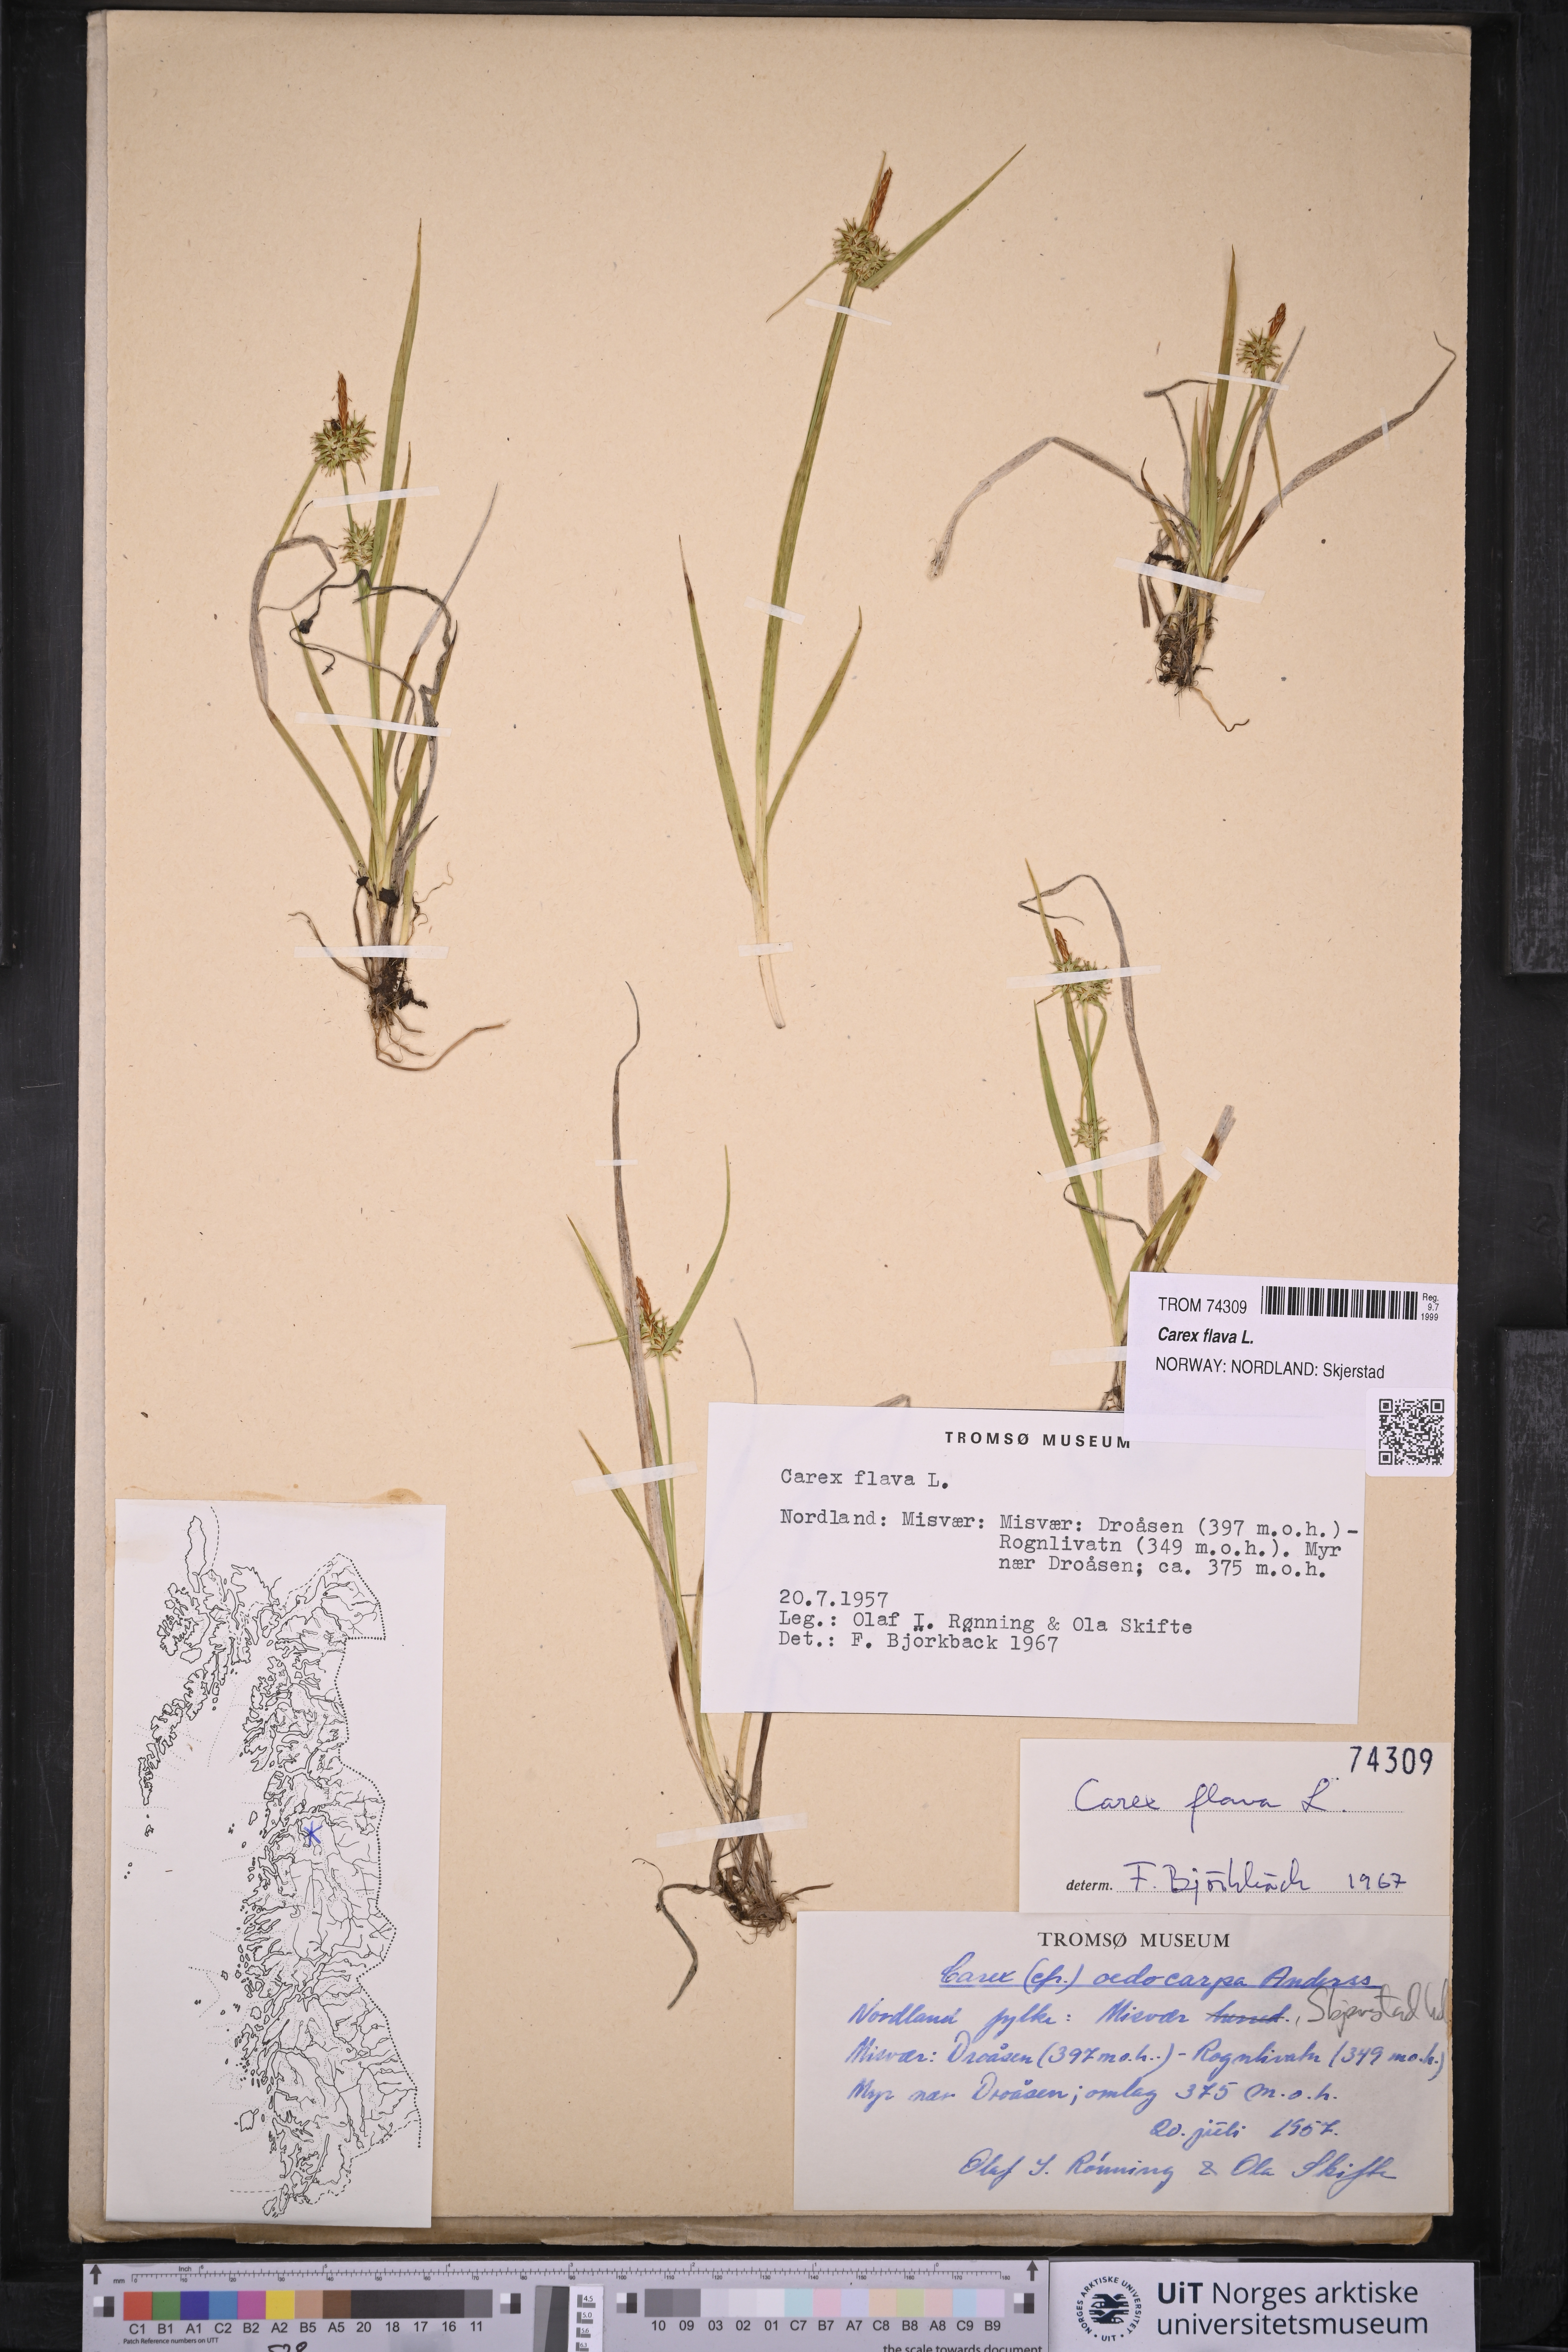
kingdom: Plantae
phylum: Tracheophyta
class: Liliopsida
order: Poales
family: Cyperaceae
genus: Carex
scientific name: Carex flava
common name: Large yellow-sedge
